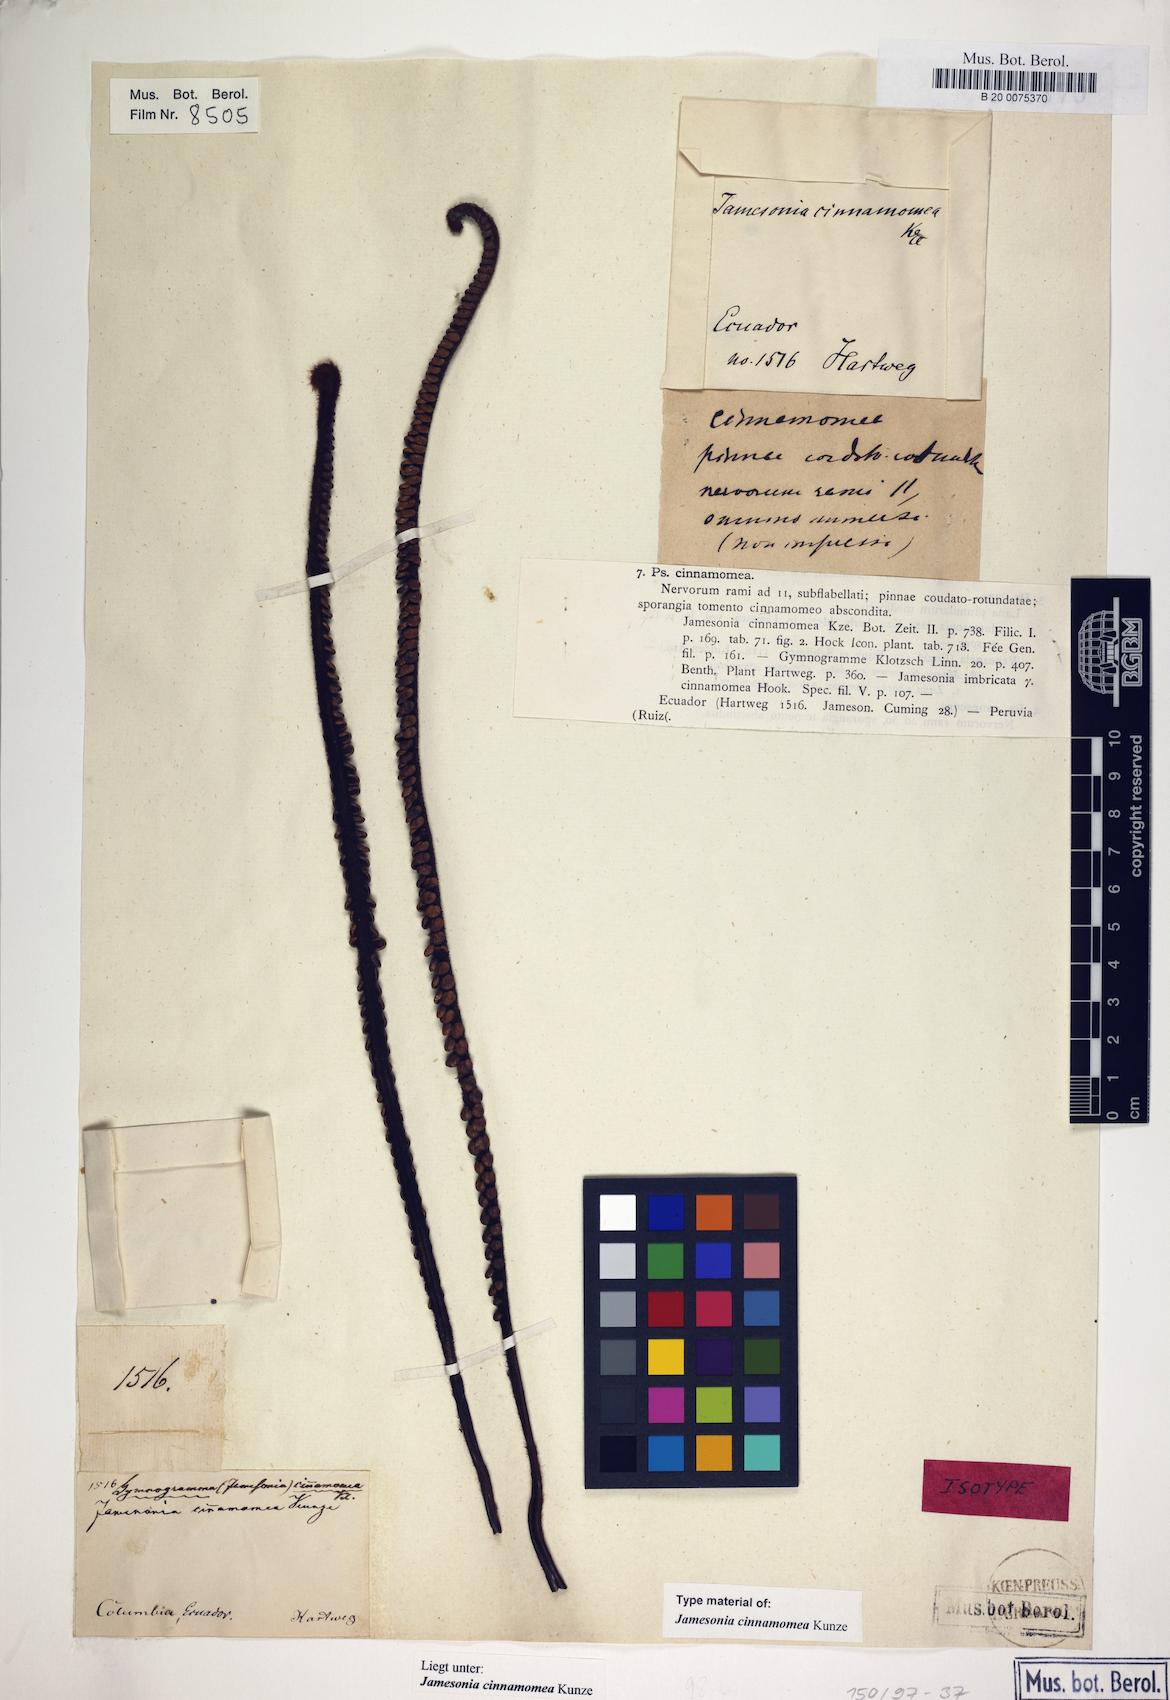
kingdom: Plantae
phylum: Tracheophyta
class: Polypodiopsida
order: Polypodiales
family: Pteridaceae
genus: Jamesonia
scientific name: Jamesonia cinnamomea
